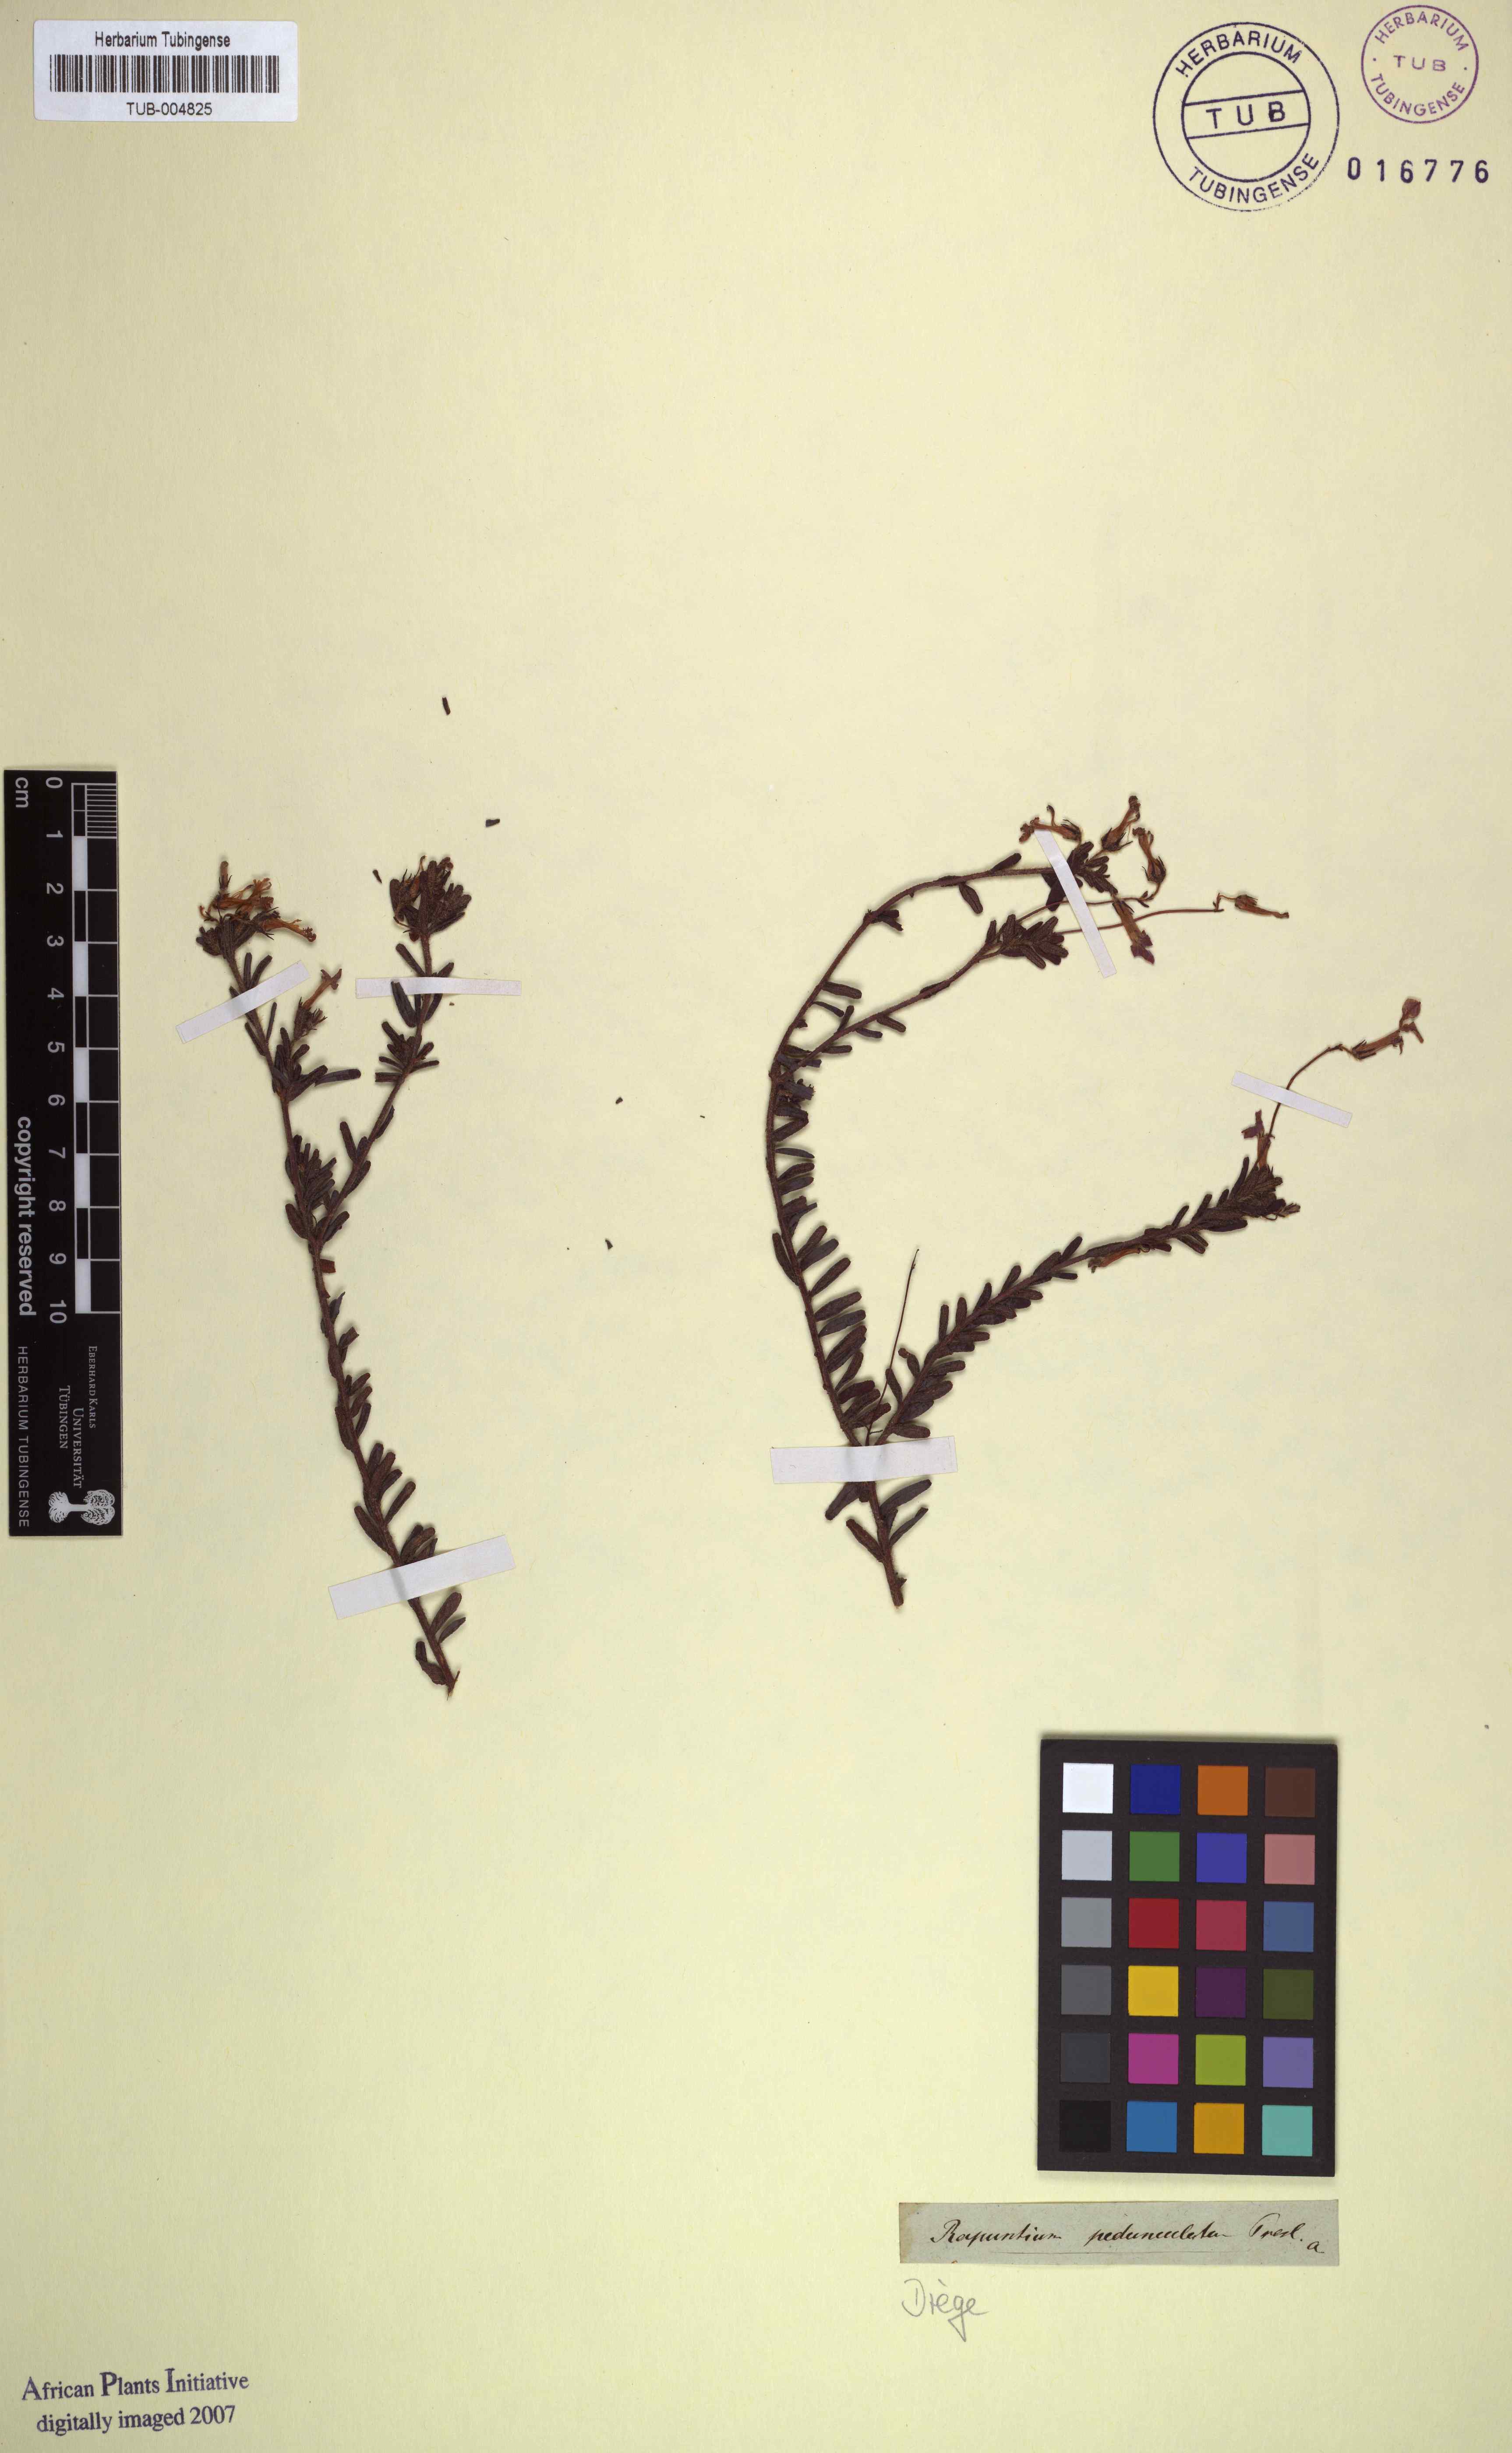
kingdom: Plantae
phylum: Tracheophyta
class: Magnoliopsida
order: Asterales
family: Campanulaceae
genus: Lobelia
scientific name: Lobelia pedunculata
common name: Matted pratia
